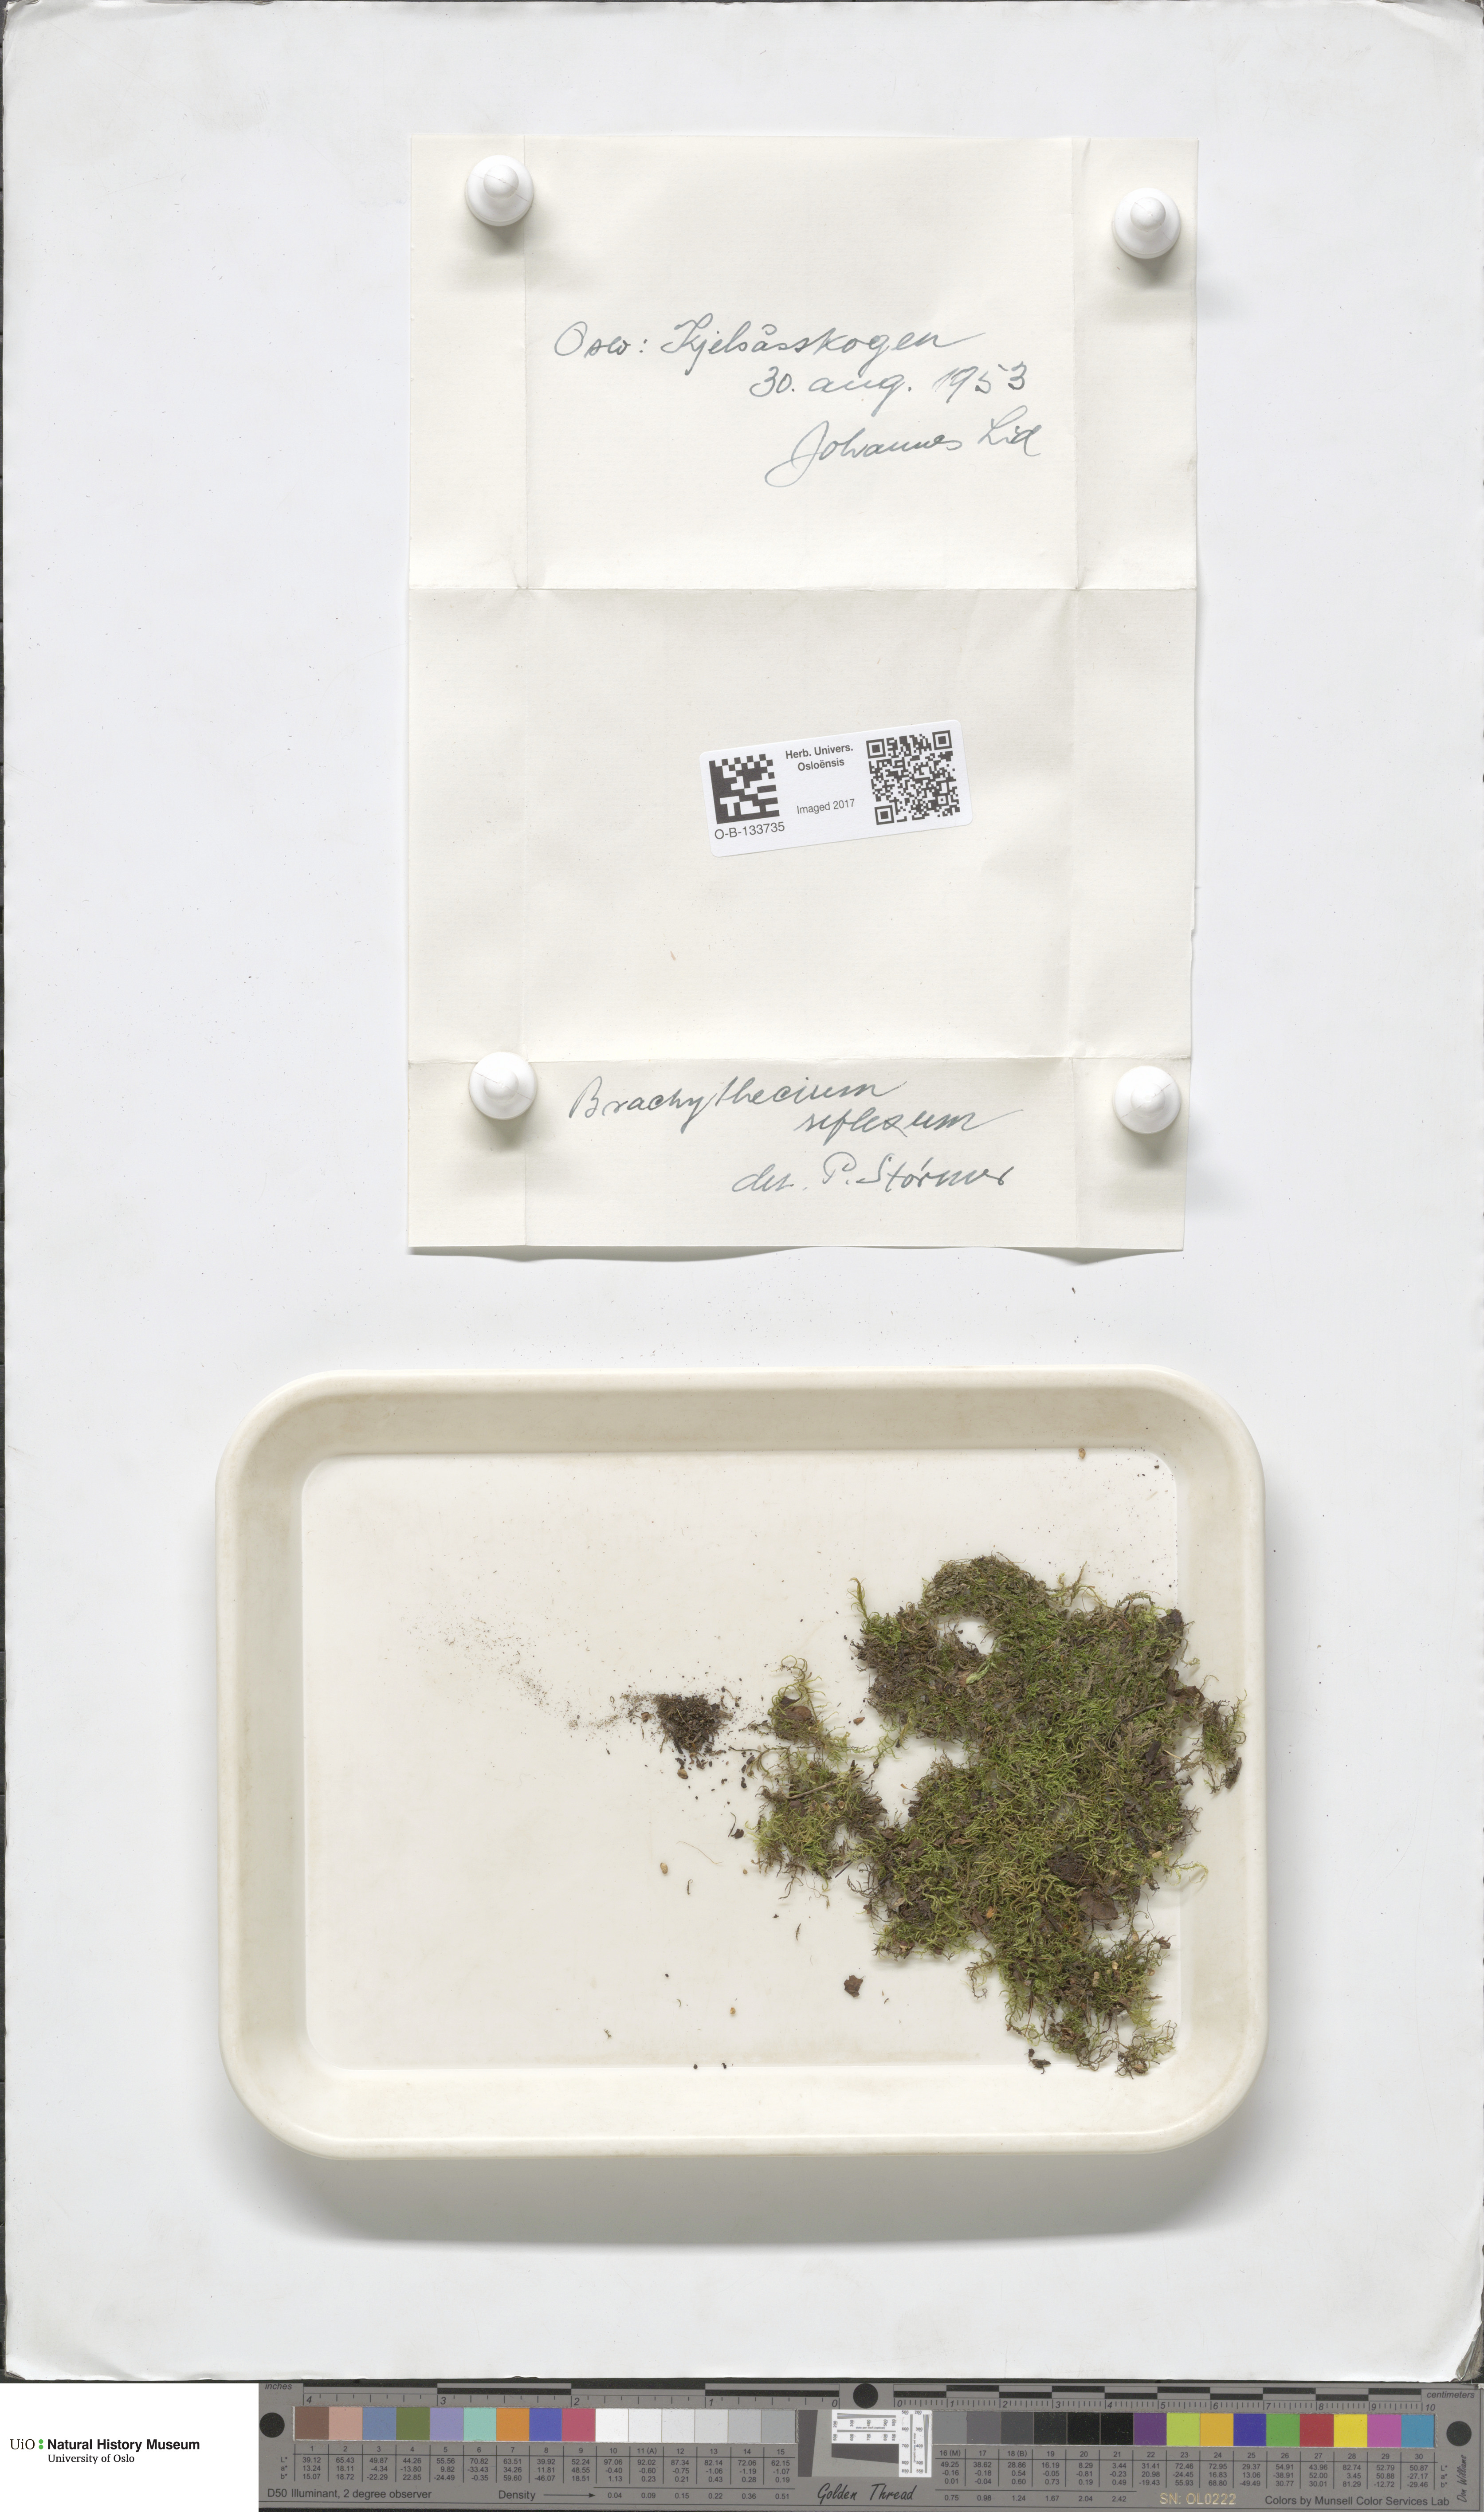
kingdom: Plantae
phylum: Bryophyta
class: Bryopsida
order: Hypnales
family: Brachytheciaceae
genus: Sciuro-hypnum
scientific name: Sciuro-hypnum reflexum
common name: Reflexed feather-moss
